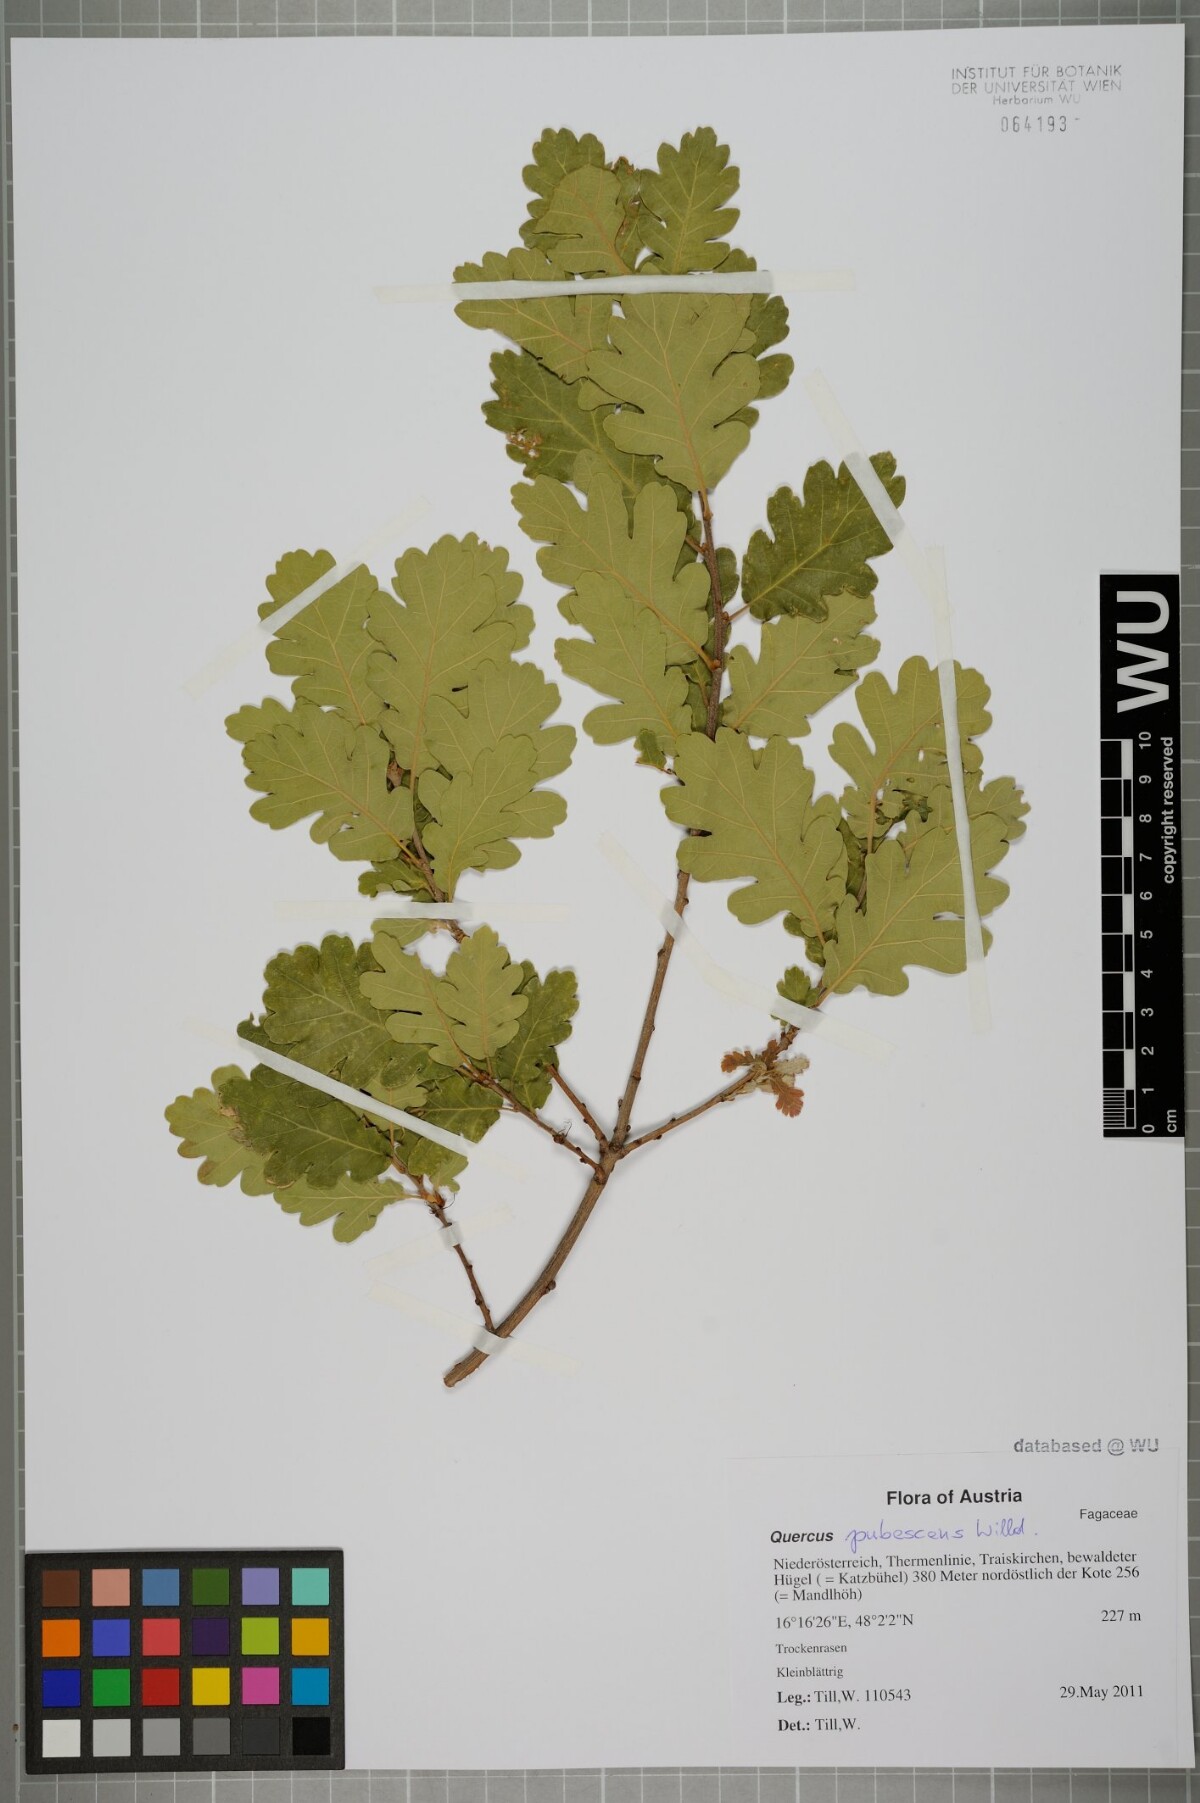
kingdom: Plantae
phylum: Tracheophyta
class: Magnoliopsida
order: Fagales
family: Fagaceae
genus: Quercus
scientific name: Quercus pubescens
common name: Downy oak
